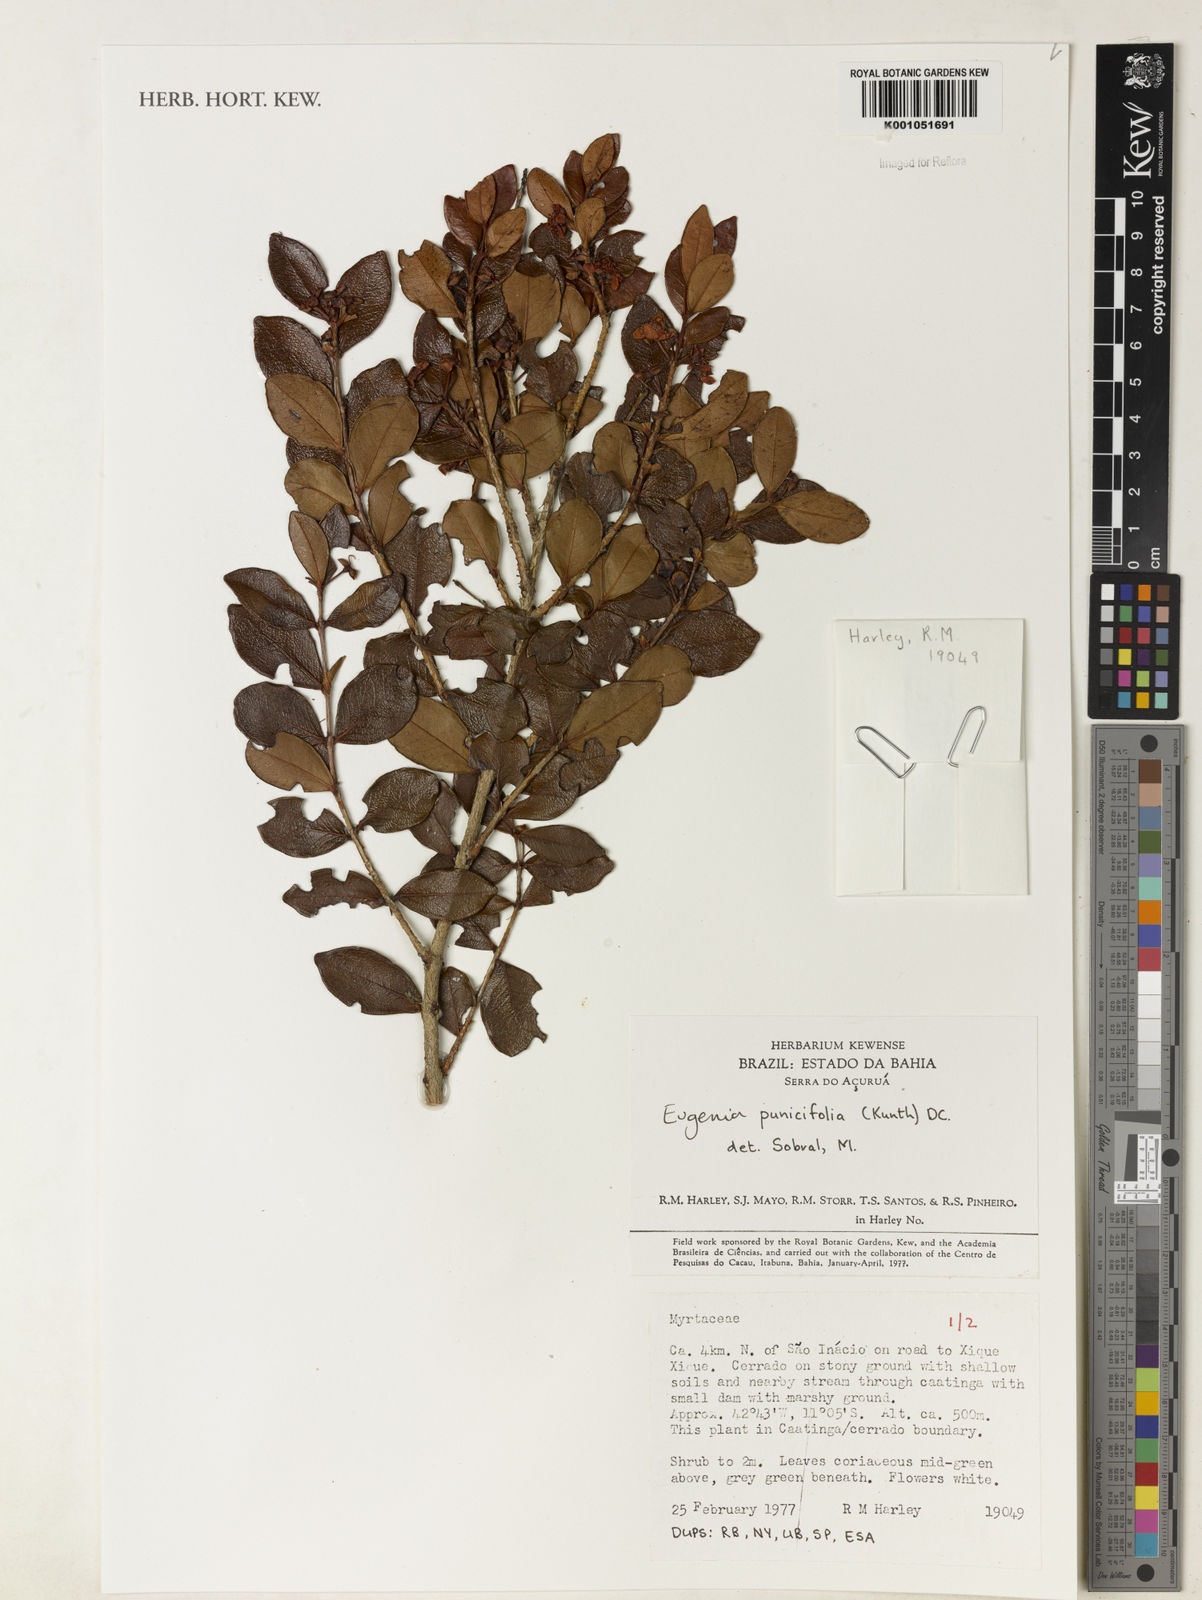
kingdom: Plantae
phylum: Tracheophyta
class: Magnoliopsida
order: Myrtales
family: Myrtaceae
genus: Eugenia
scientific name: Eugenia punicifolia
